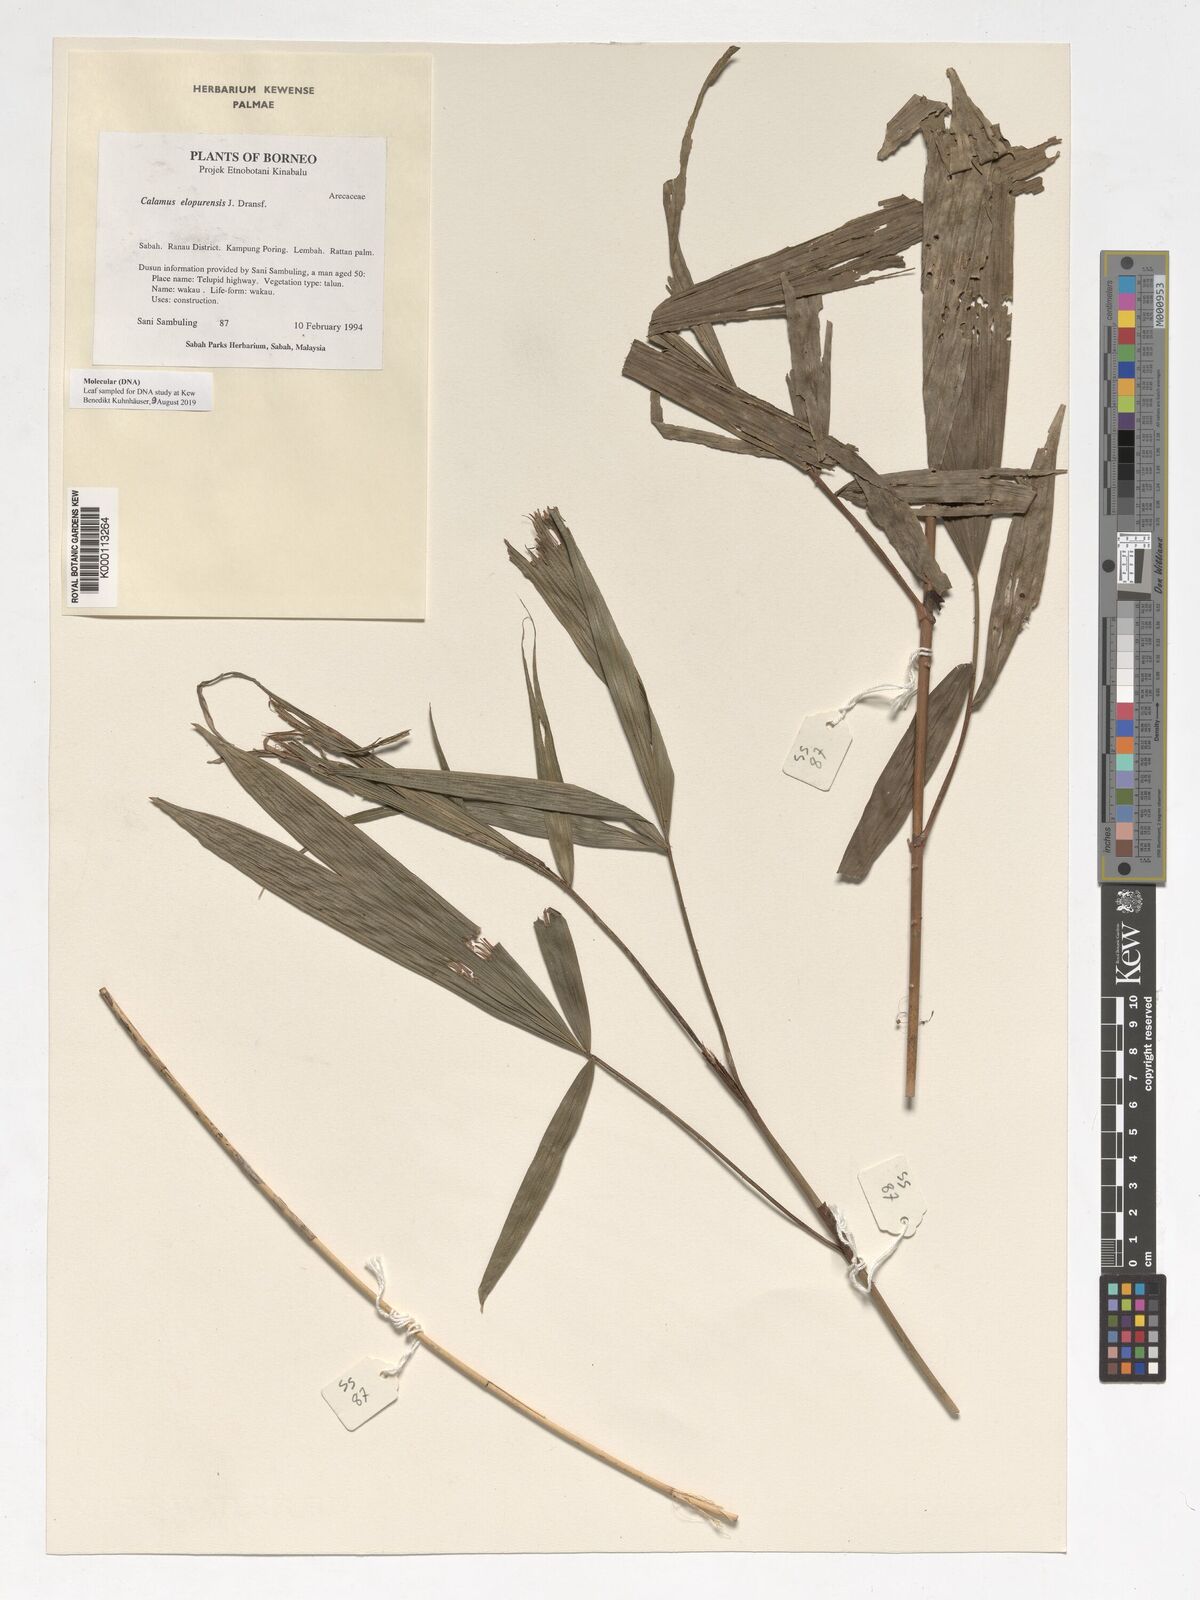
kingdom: Plantae
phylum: Tracheophyta
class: Liliopsida
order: Arecales
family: Arecaceae
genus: Calamus
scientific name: Calamus javensis
